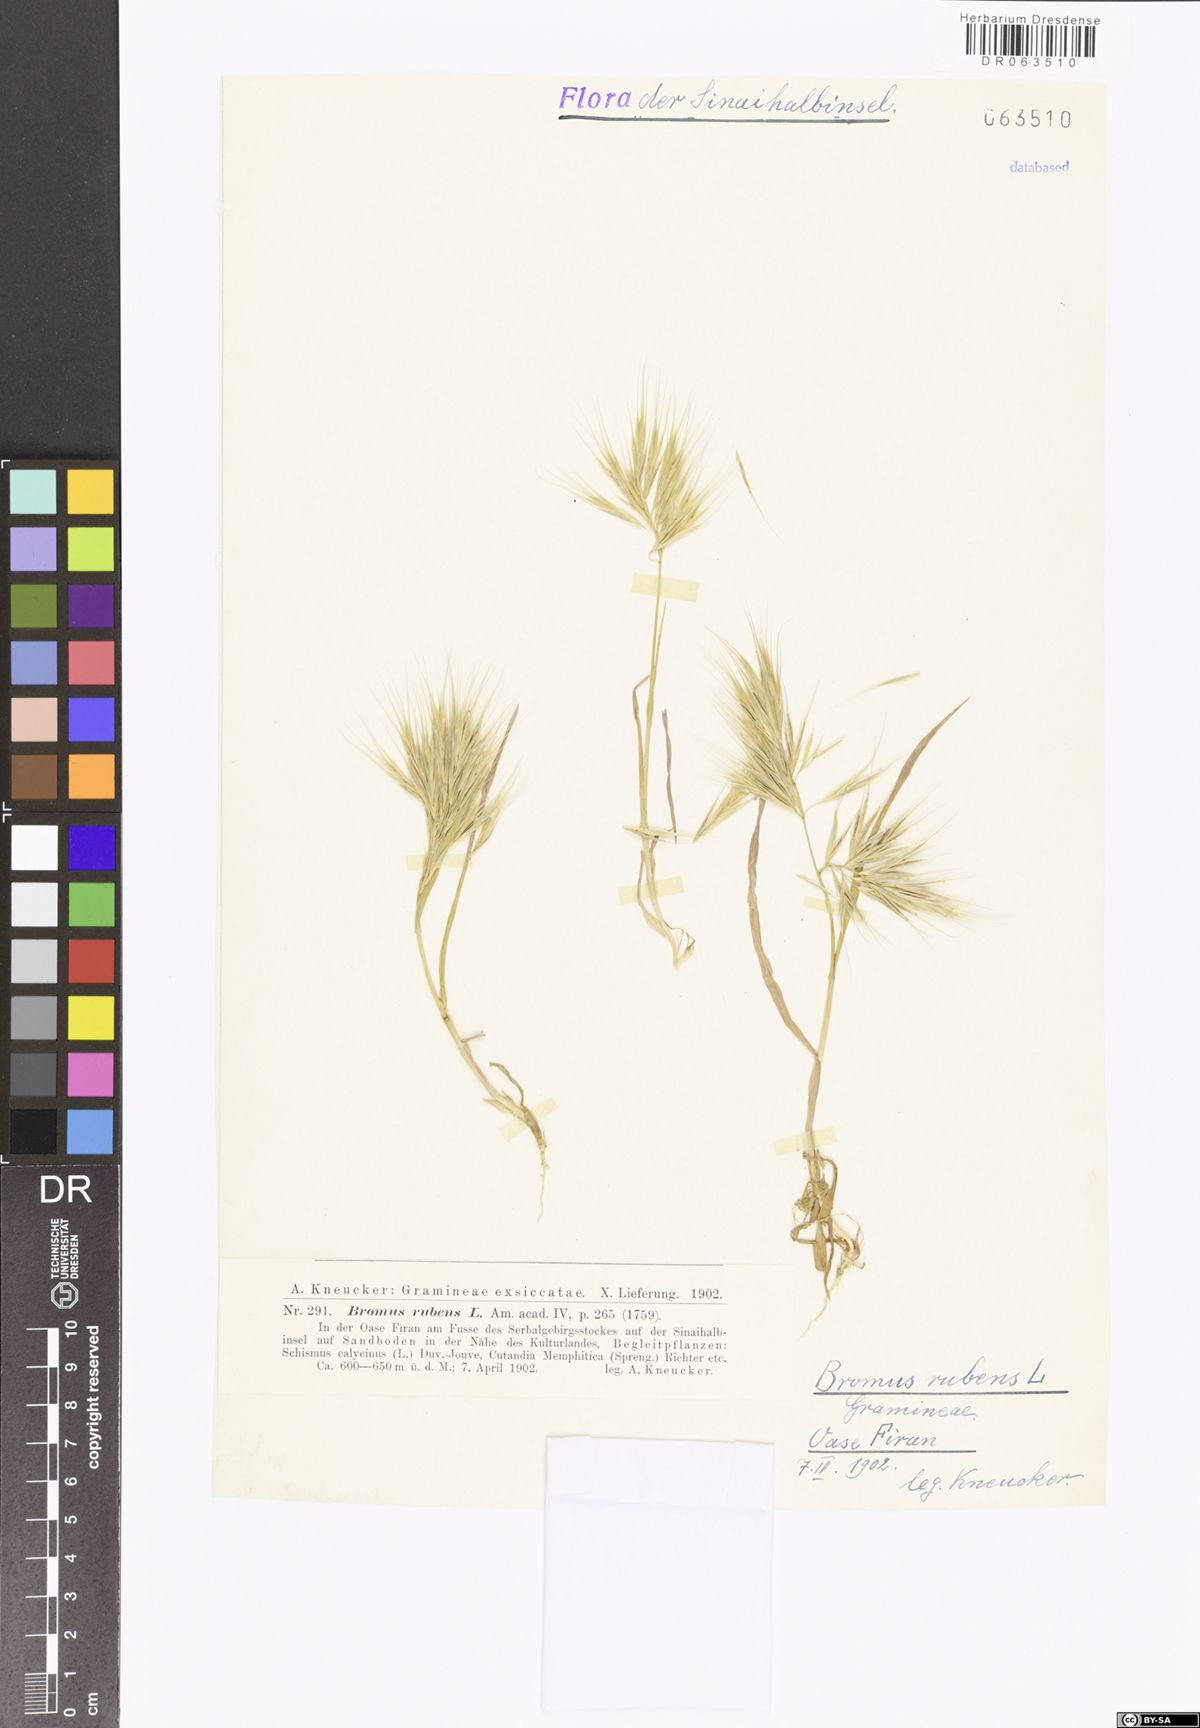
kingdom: Plantae
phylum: Tracheophyta
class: Liliopsida
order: Poales
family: Poaceae
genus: Bromus
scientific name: Bromus rubens
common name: Red brome
